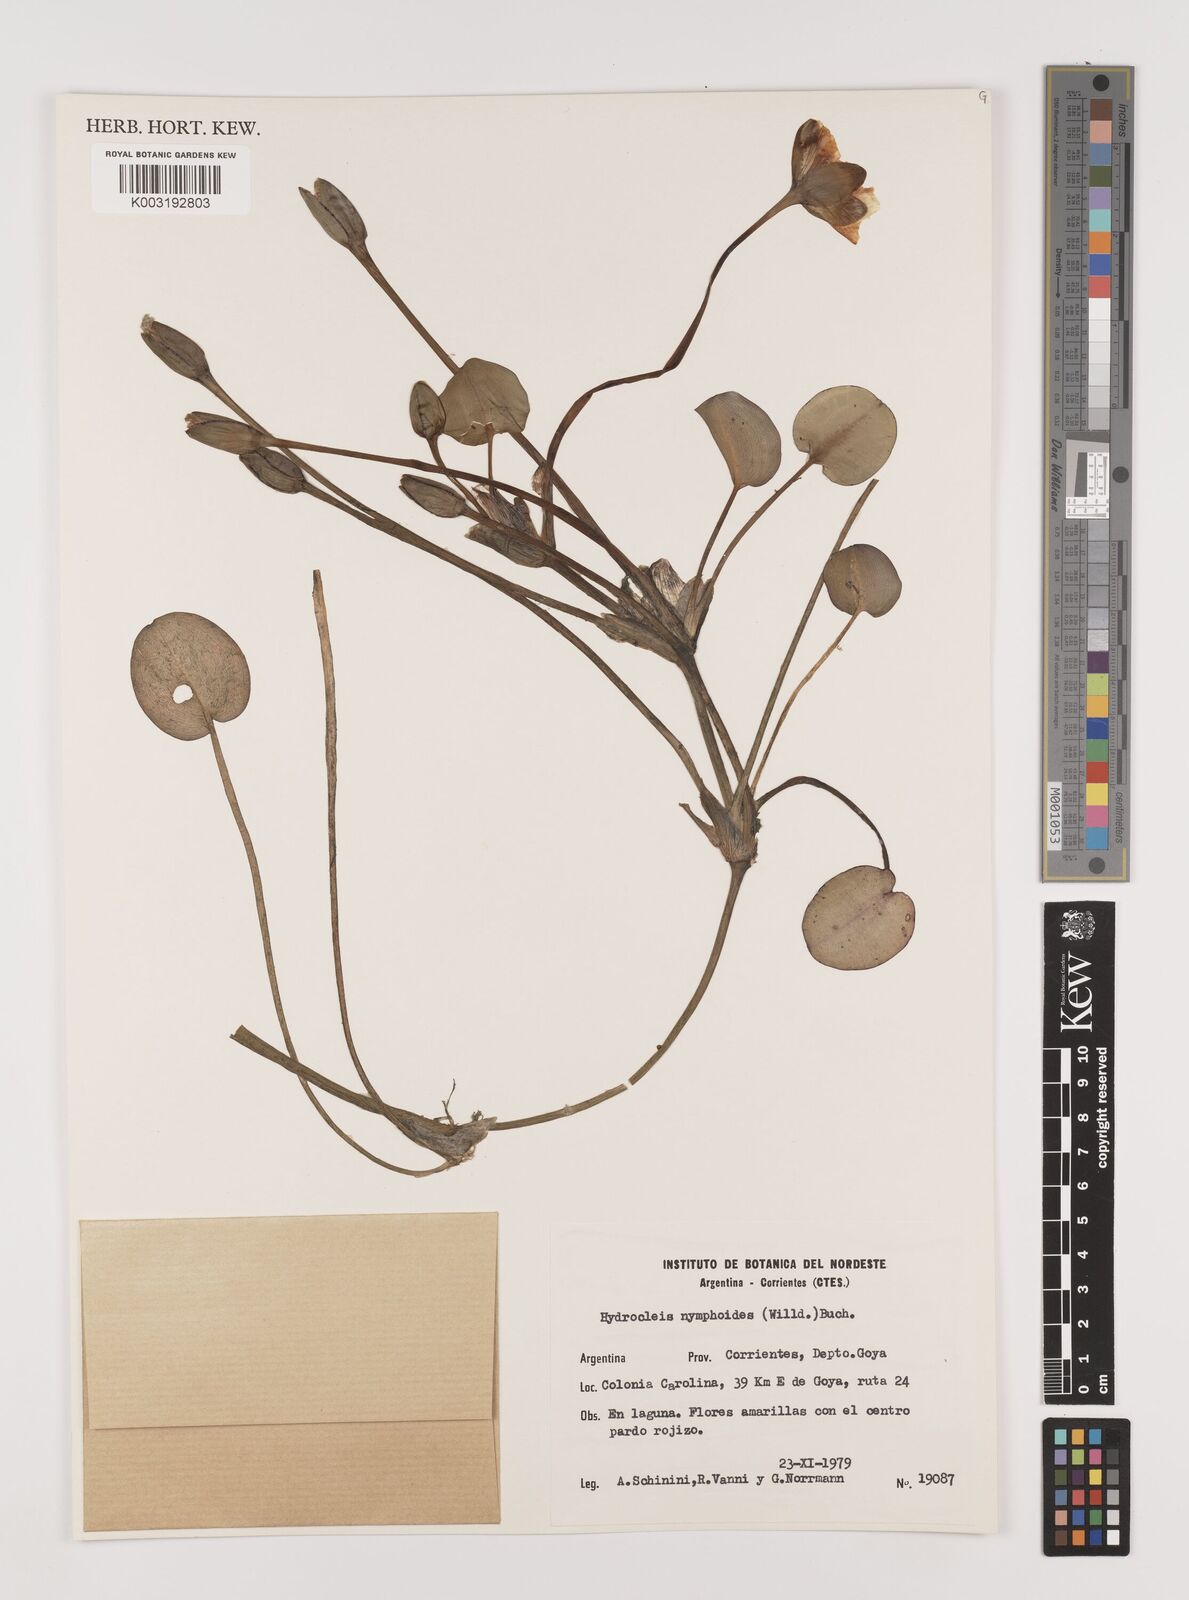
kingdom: Plantae
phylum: Tracheophyta
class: Liliopsida
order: Alismatales
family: Alismataceae
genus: Hydrocleys
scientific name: Hydrocleys nymphoides
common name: Water-poppy
